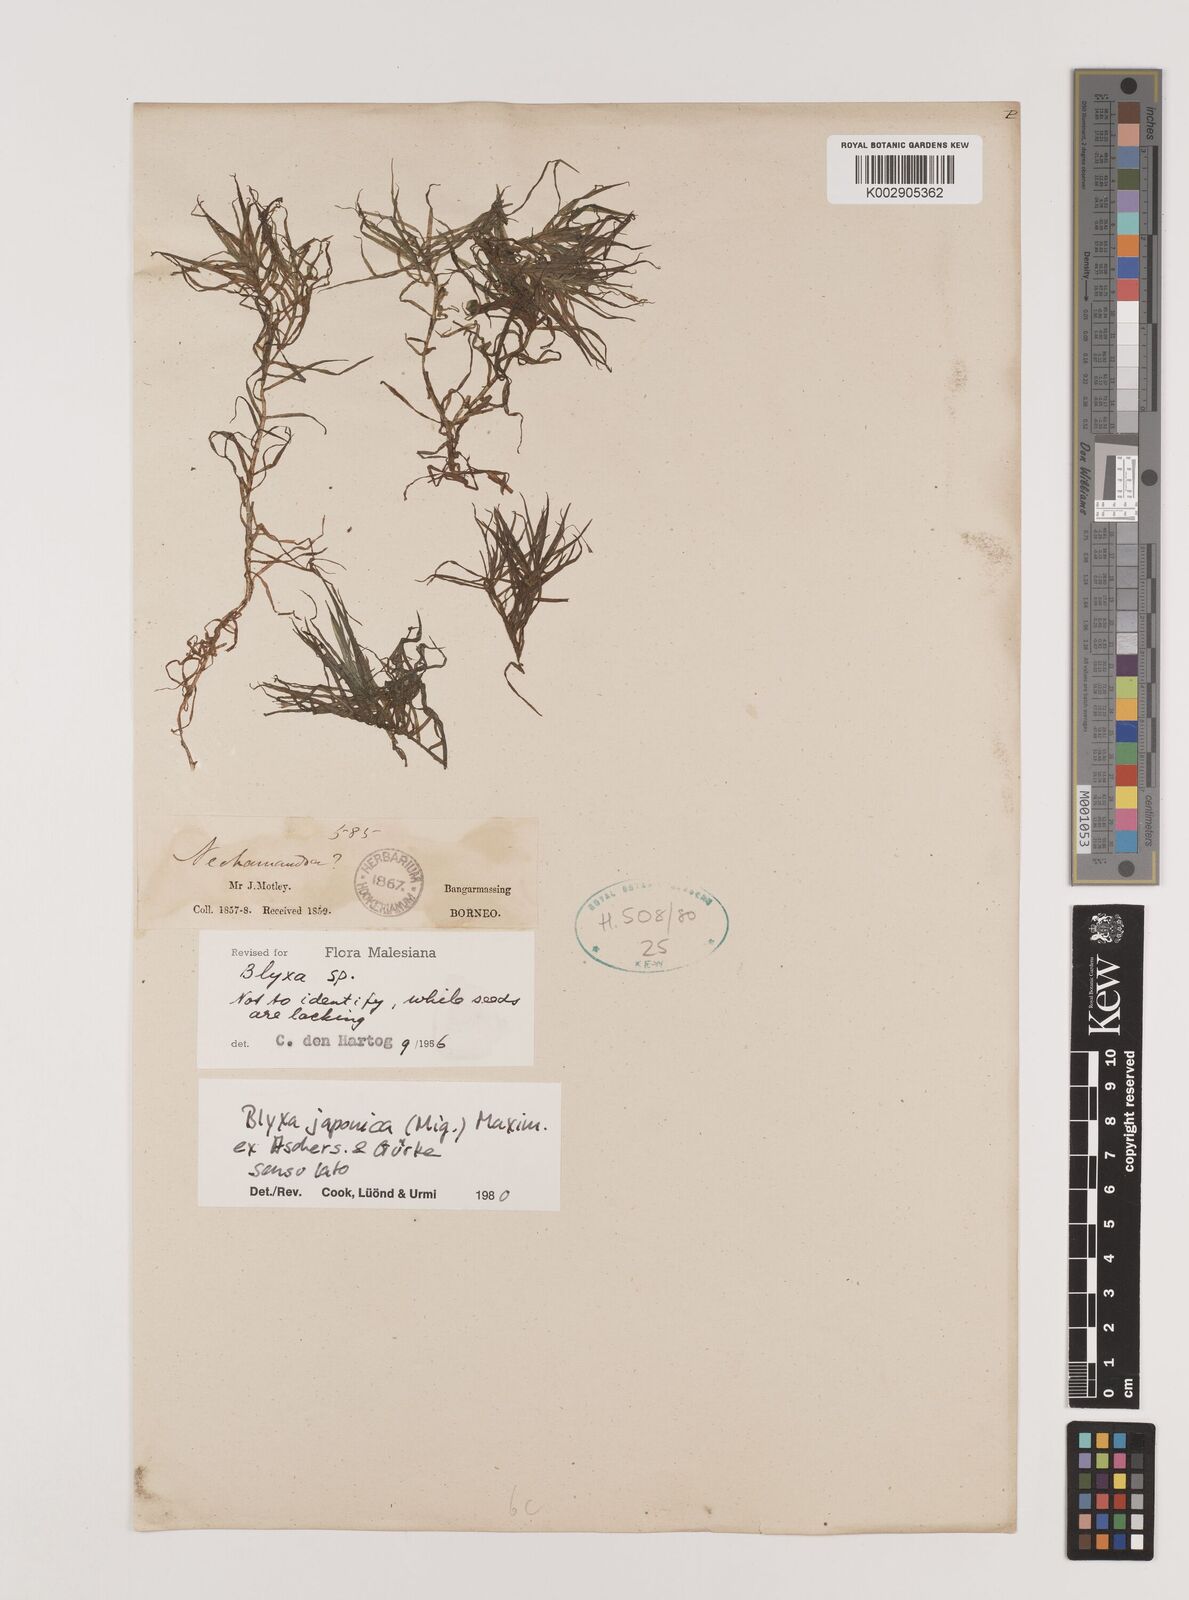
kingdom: Plantae
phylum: Tracheophyta
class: Liliopsida
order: Alismatales
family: Hydrocharitaceae
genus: Blyxa
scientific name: Blyxa japonica
